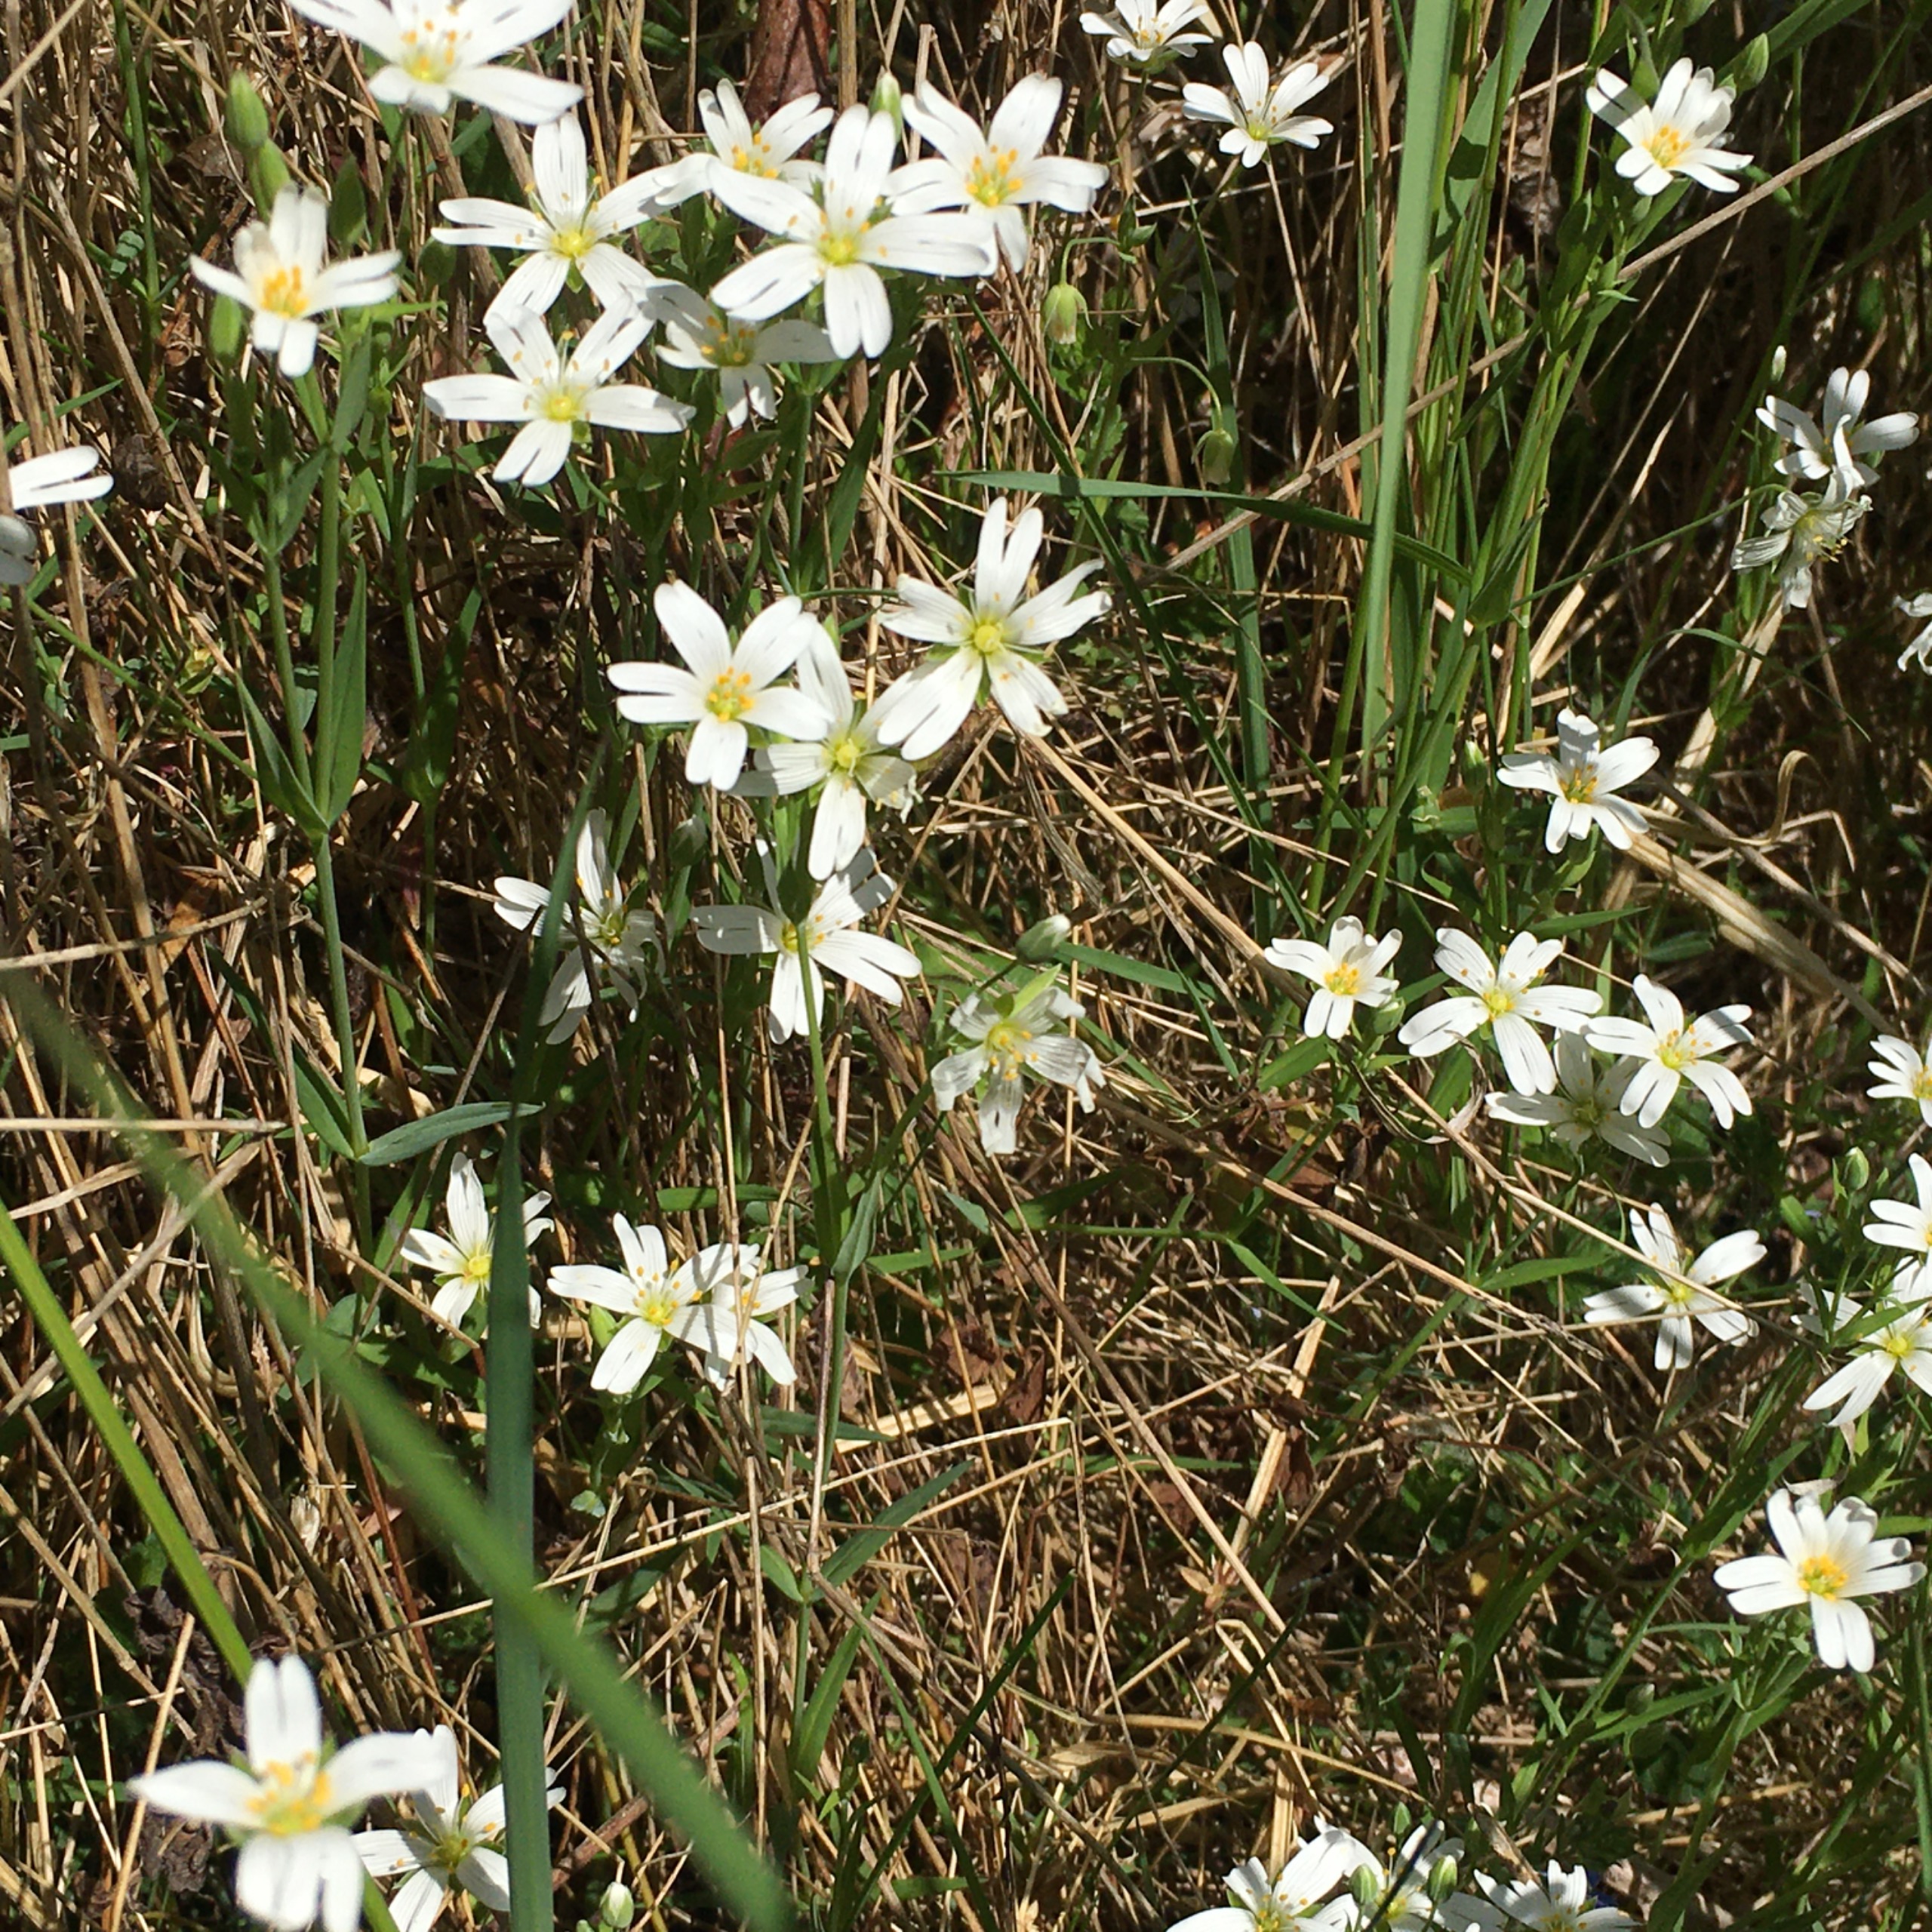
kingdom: Plantae
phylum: Tracheophyta
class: Magnoliopsida
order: Caryophyllales
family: Caryophyllaceae
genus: Rabelera
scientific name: Rabelera holostea
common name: Stor fladstjerne
